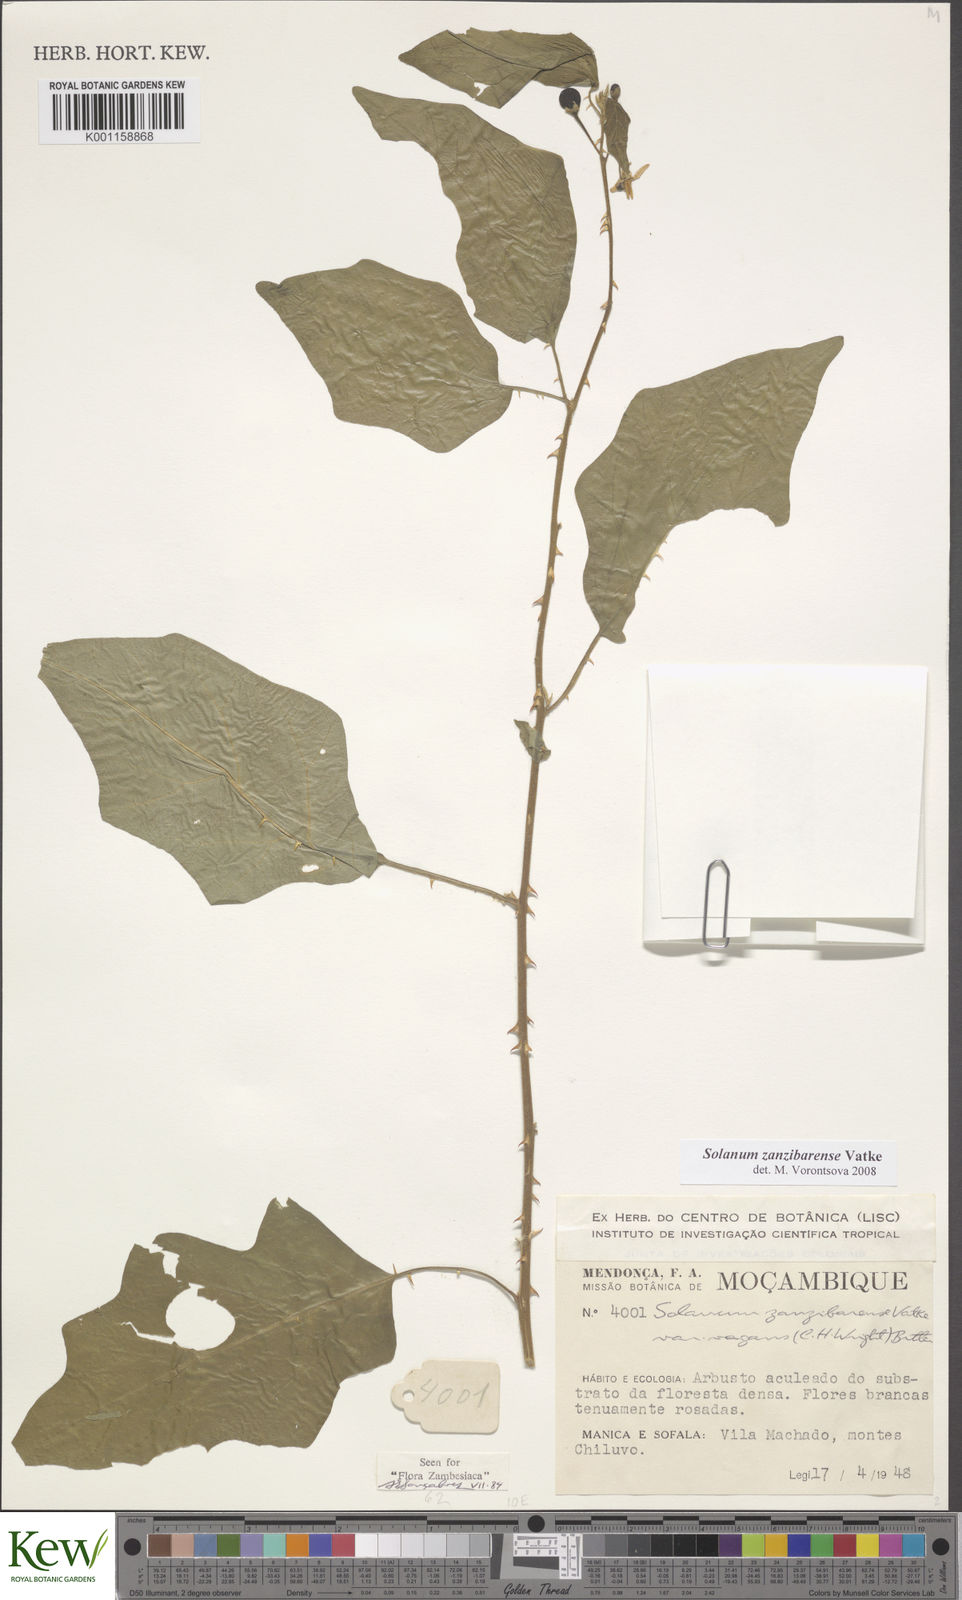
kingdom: Plantae
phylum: Tracheophyta
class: Magnoliopsida
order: Solanales
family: Solanaceae
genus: Solanum
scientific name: Solanum zanzibarense
